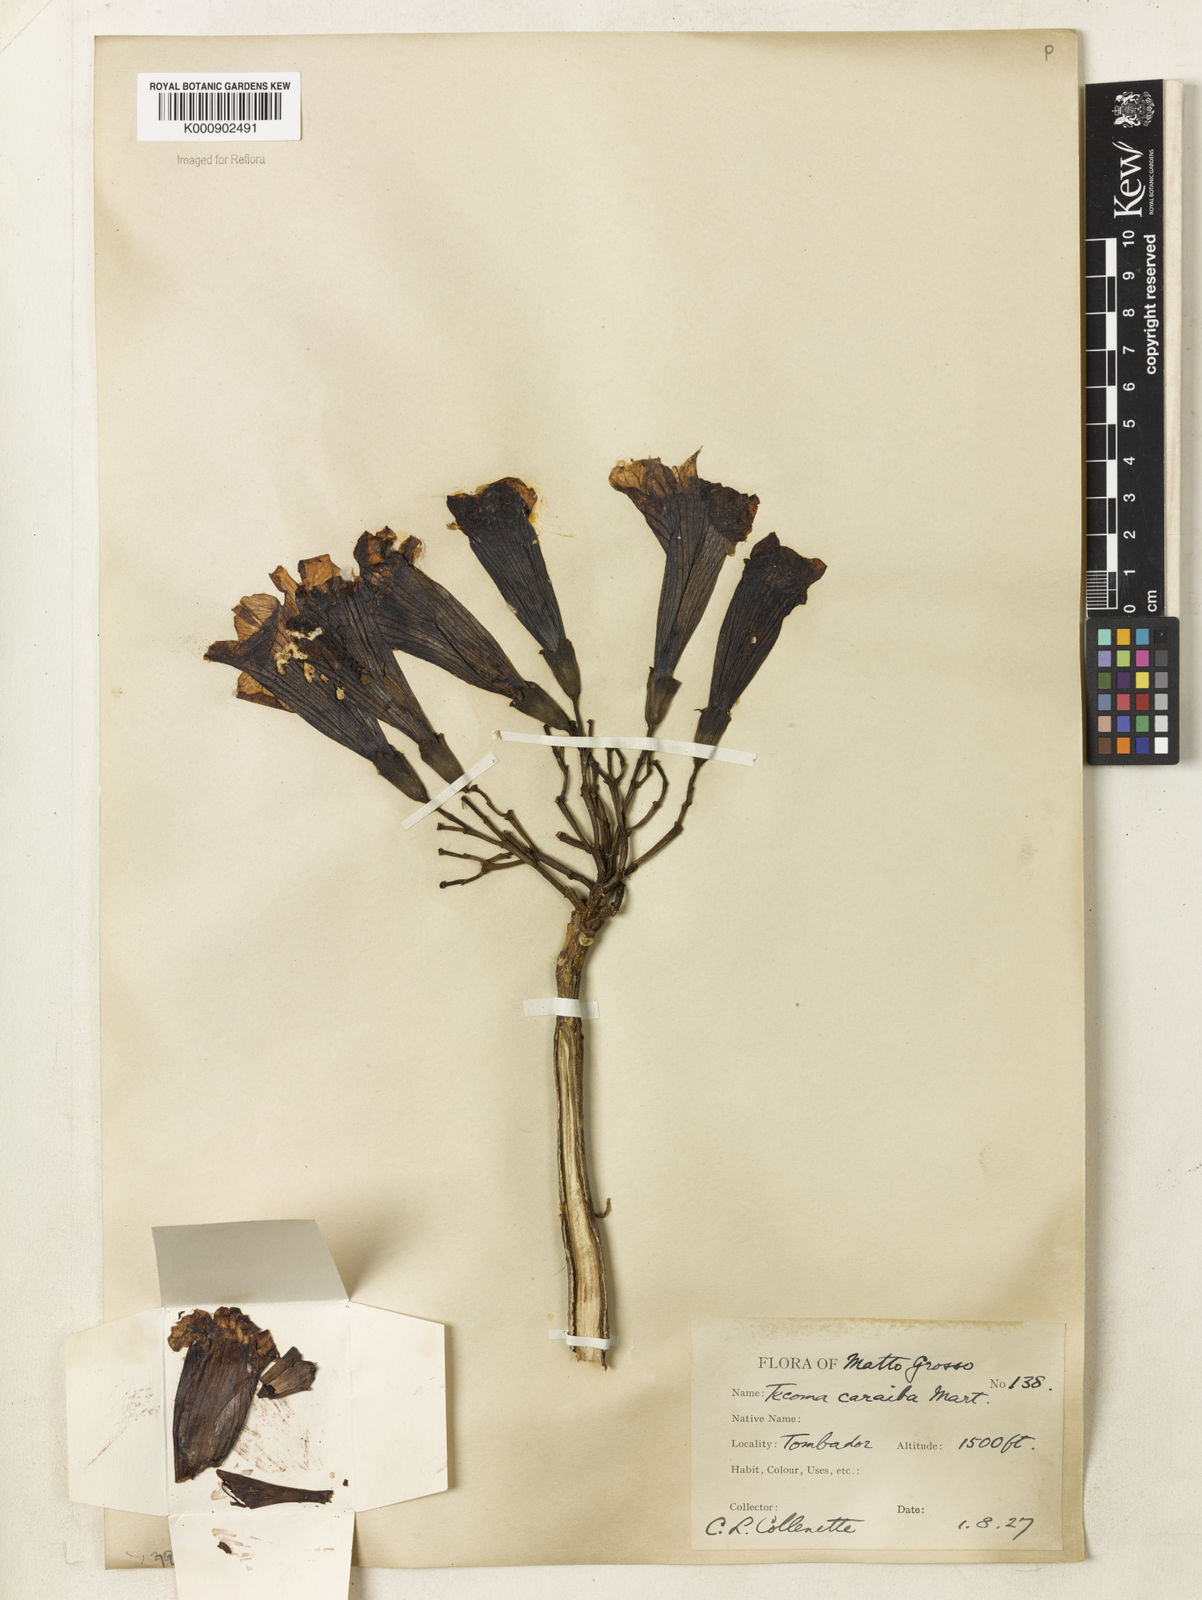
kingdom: Plantae
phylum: Tracheophyta
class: Magnoliopsida
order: Lamiales
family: Bignoniaceae
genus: Tabebuia
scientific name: Tabebuia aurea
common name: Caribbean trumpet-tree
